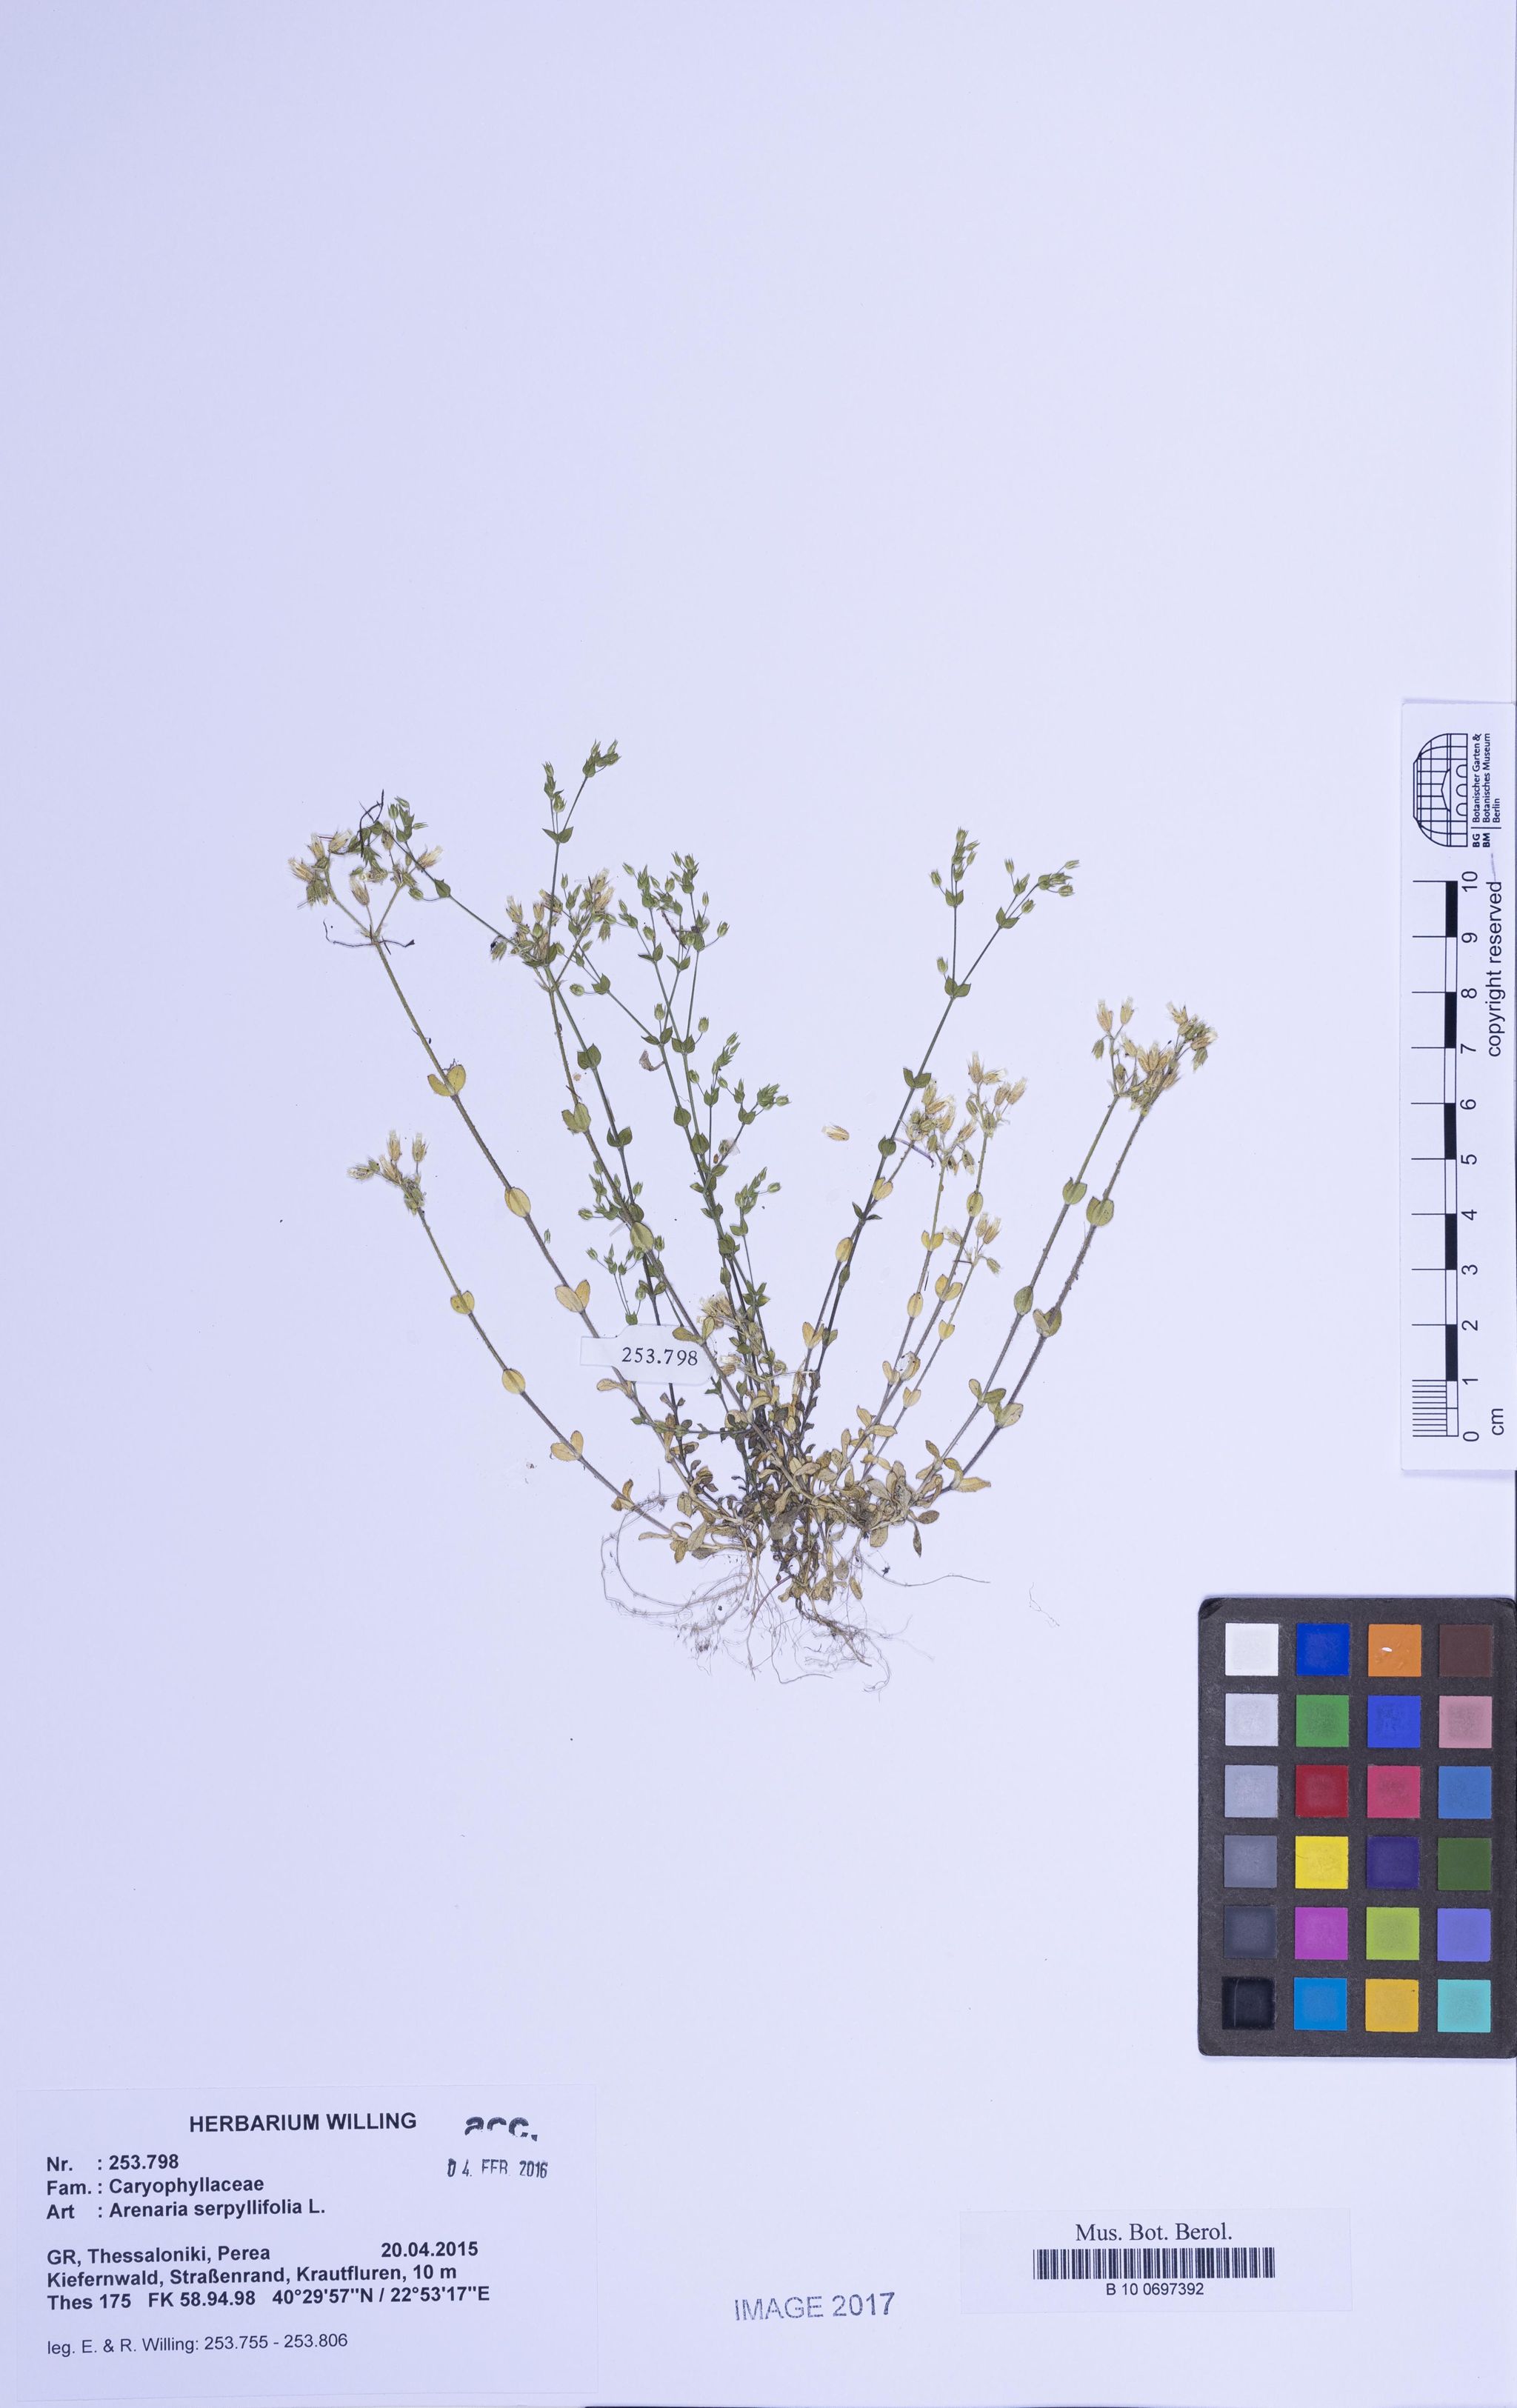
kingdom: Plantae
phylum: Tracheophyta
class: Magnoliopsida
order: Caryophyllales
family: Caryophyllaceae
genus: Arenaria
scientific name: Arenaria serpyllifolia
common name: Thyme-leaved sandwort
